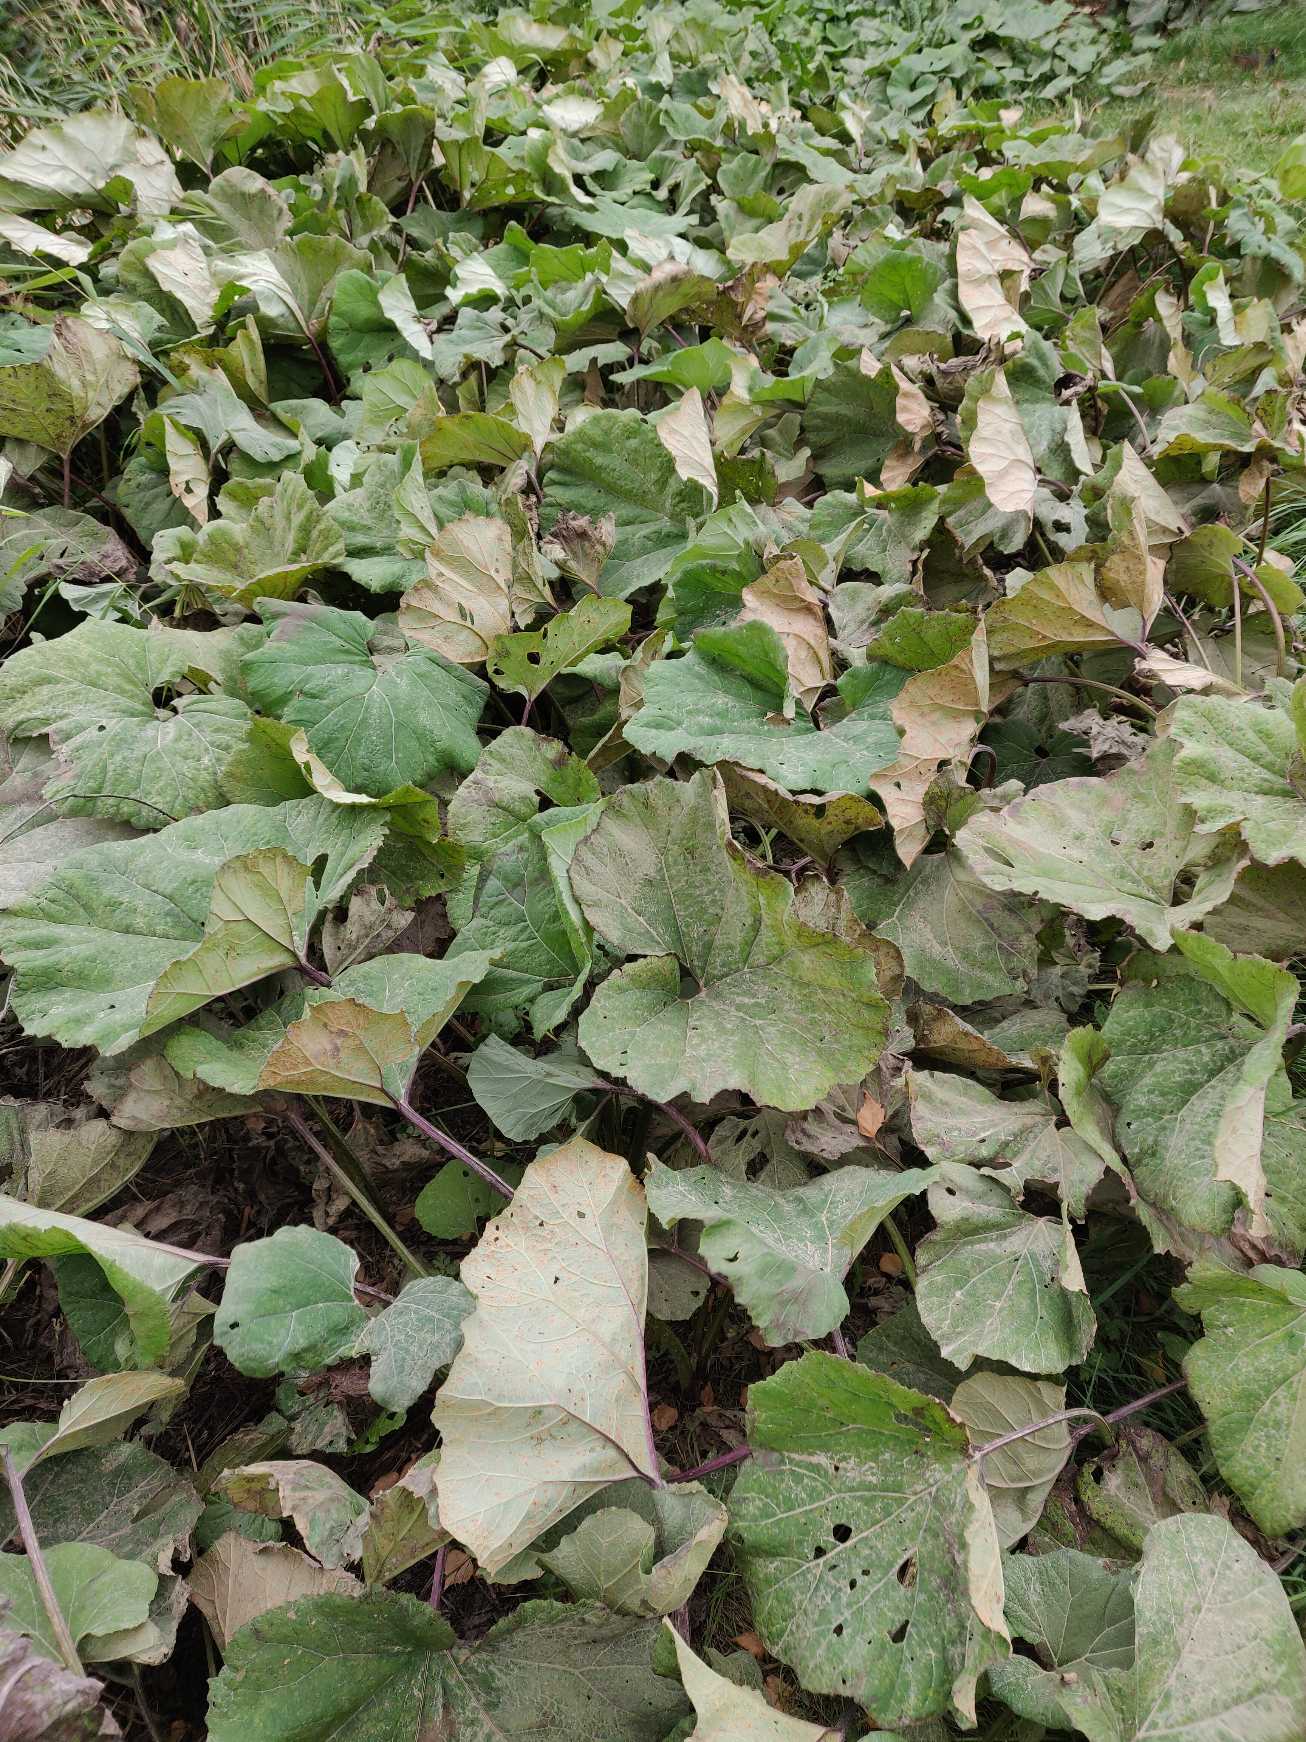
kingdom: Plantae
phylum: Tracheophyta
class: Magnoliopsida
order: Asterales
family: Asteraceae
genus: Petasites
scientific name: Petasites hybridus
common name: Rød hestehov
